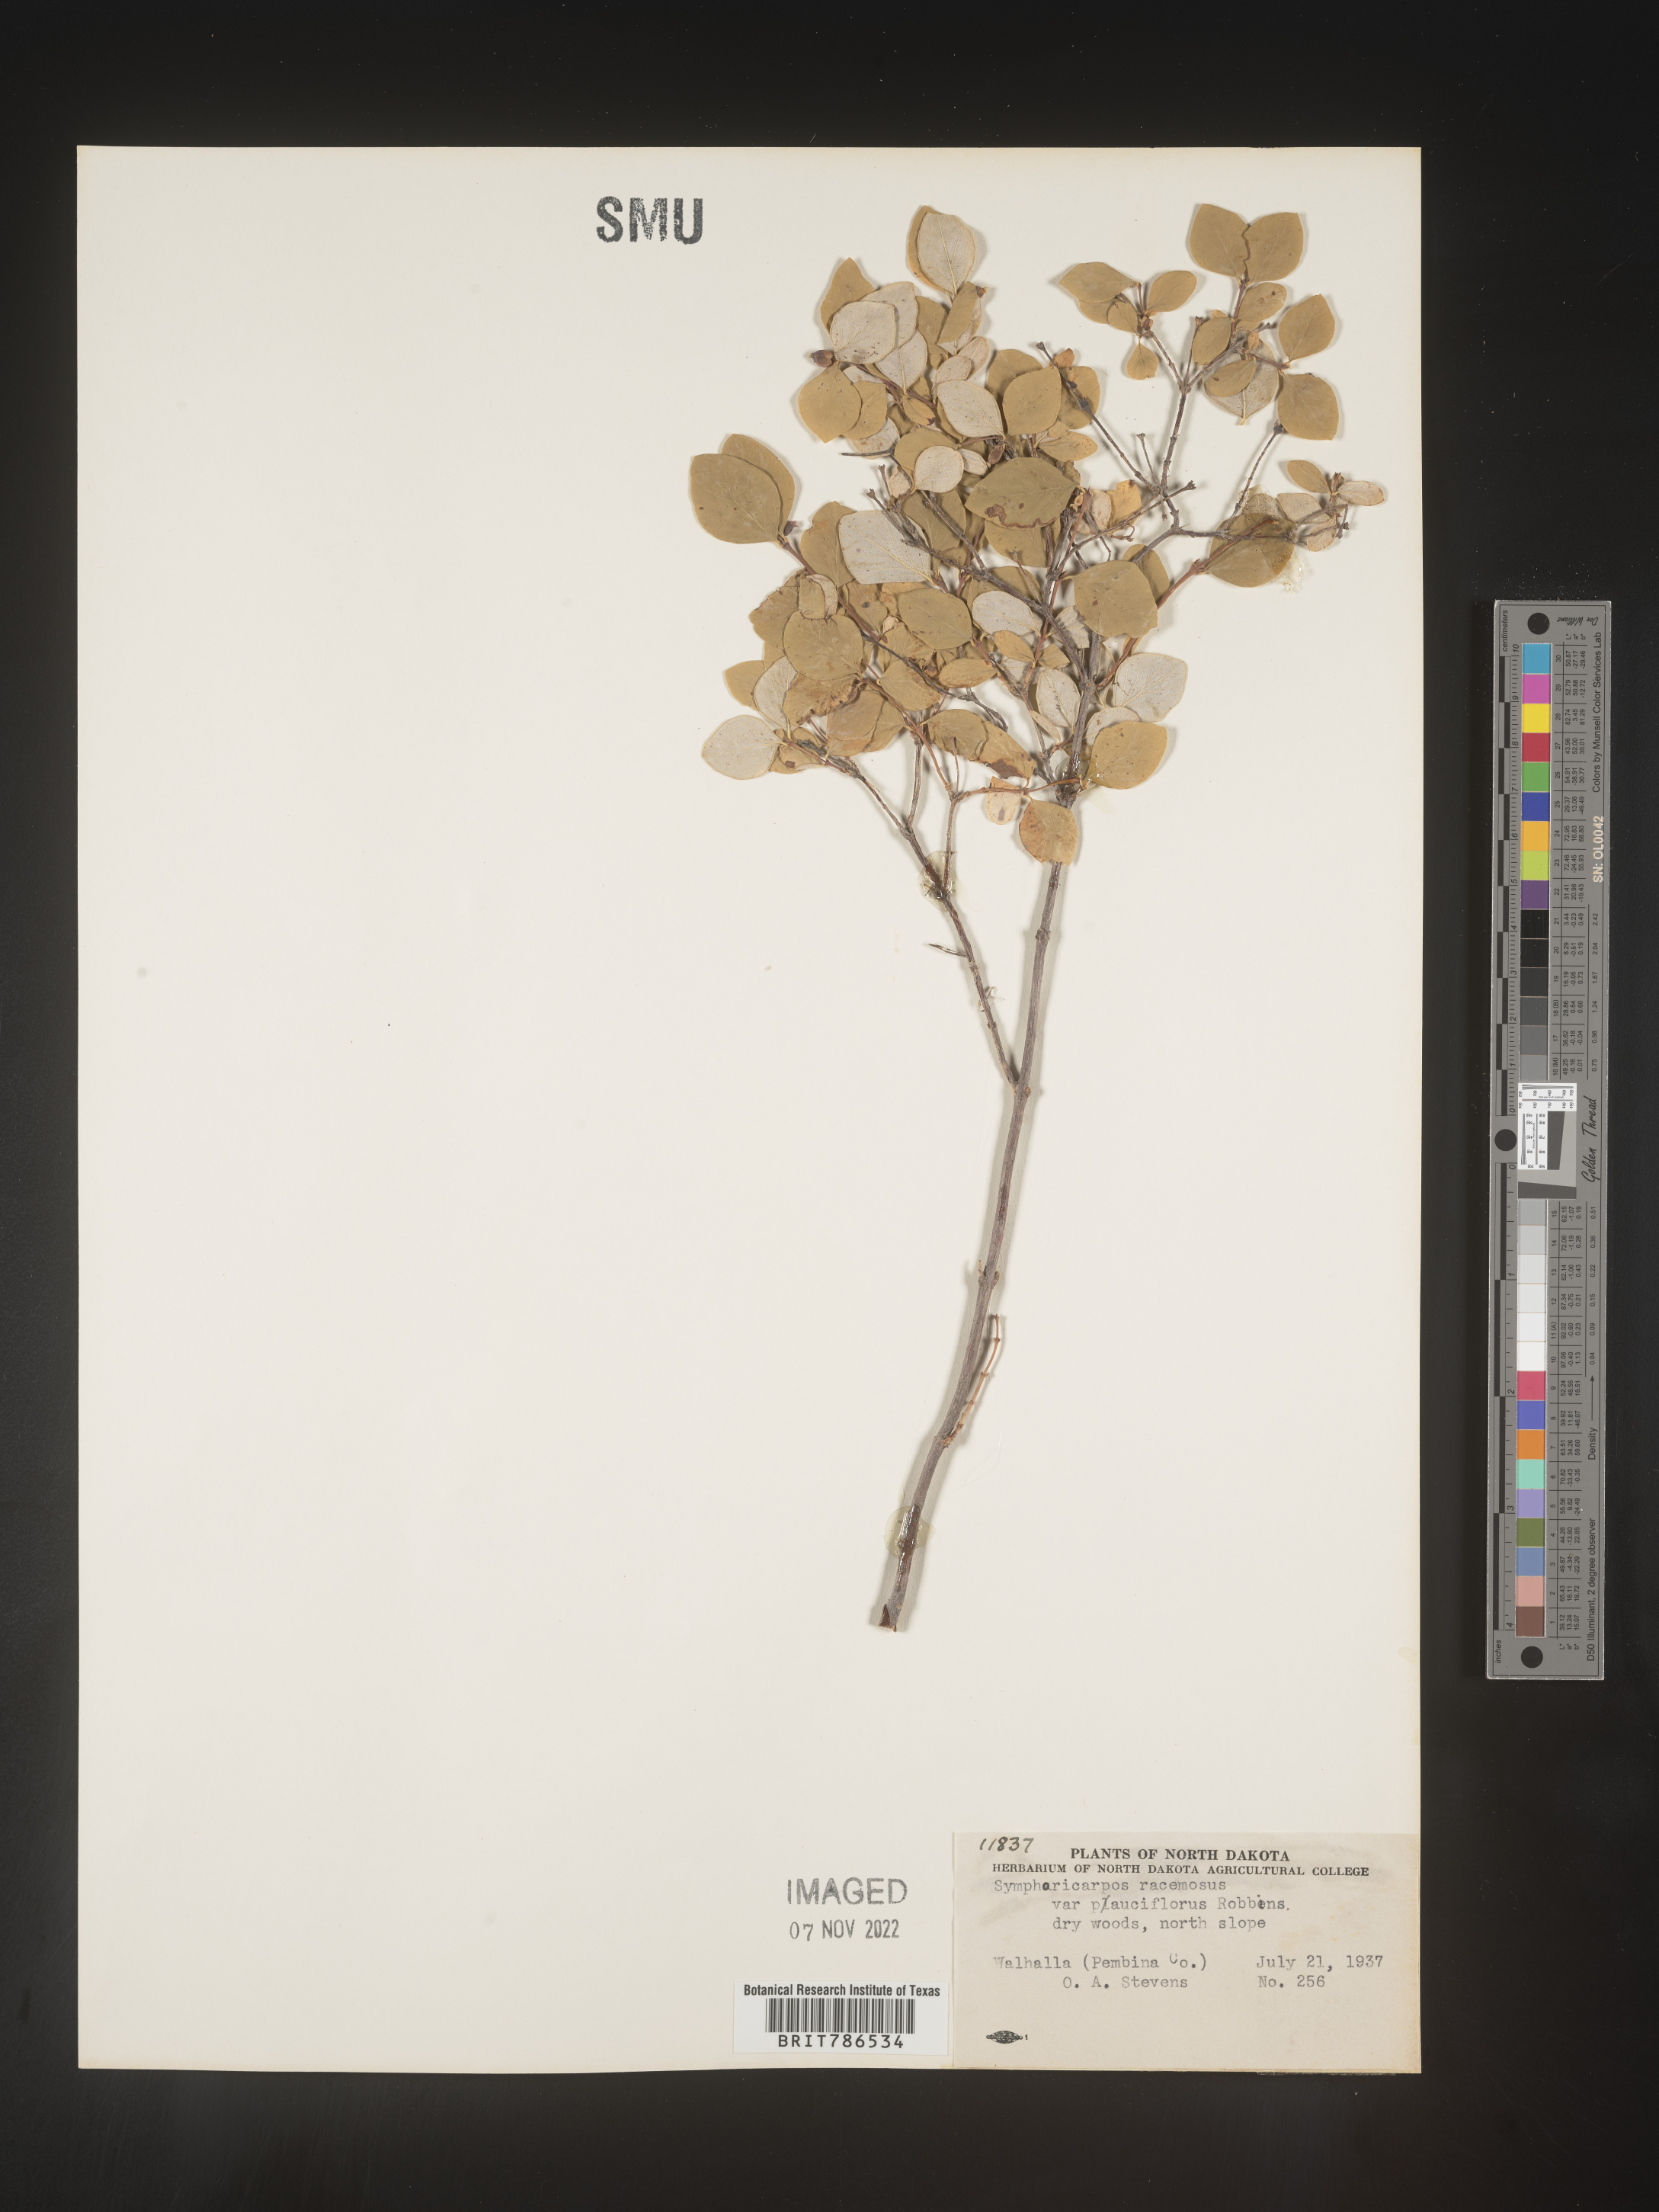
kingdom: Plantae
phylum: Tracheophyta
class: Magnoliopsida
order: Dipsacales
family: Caprifoliaceae
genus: Symphoricarpos
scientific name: Symphoricarpos
